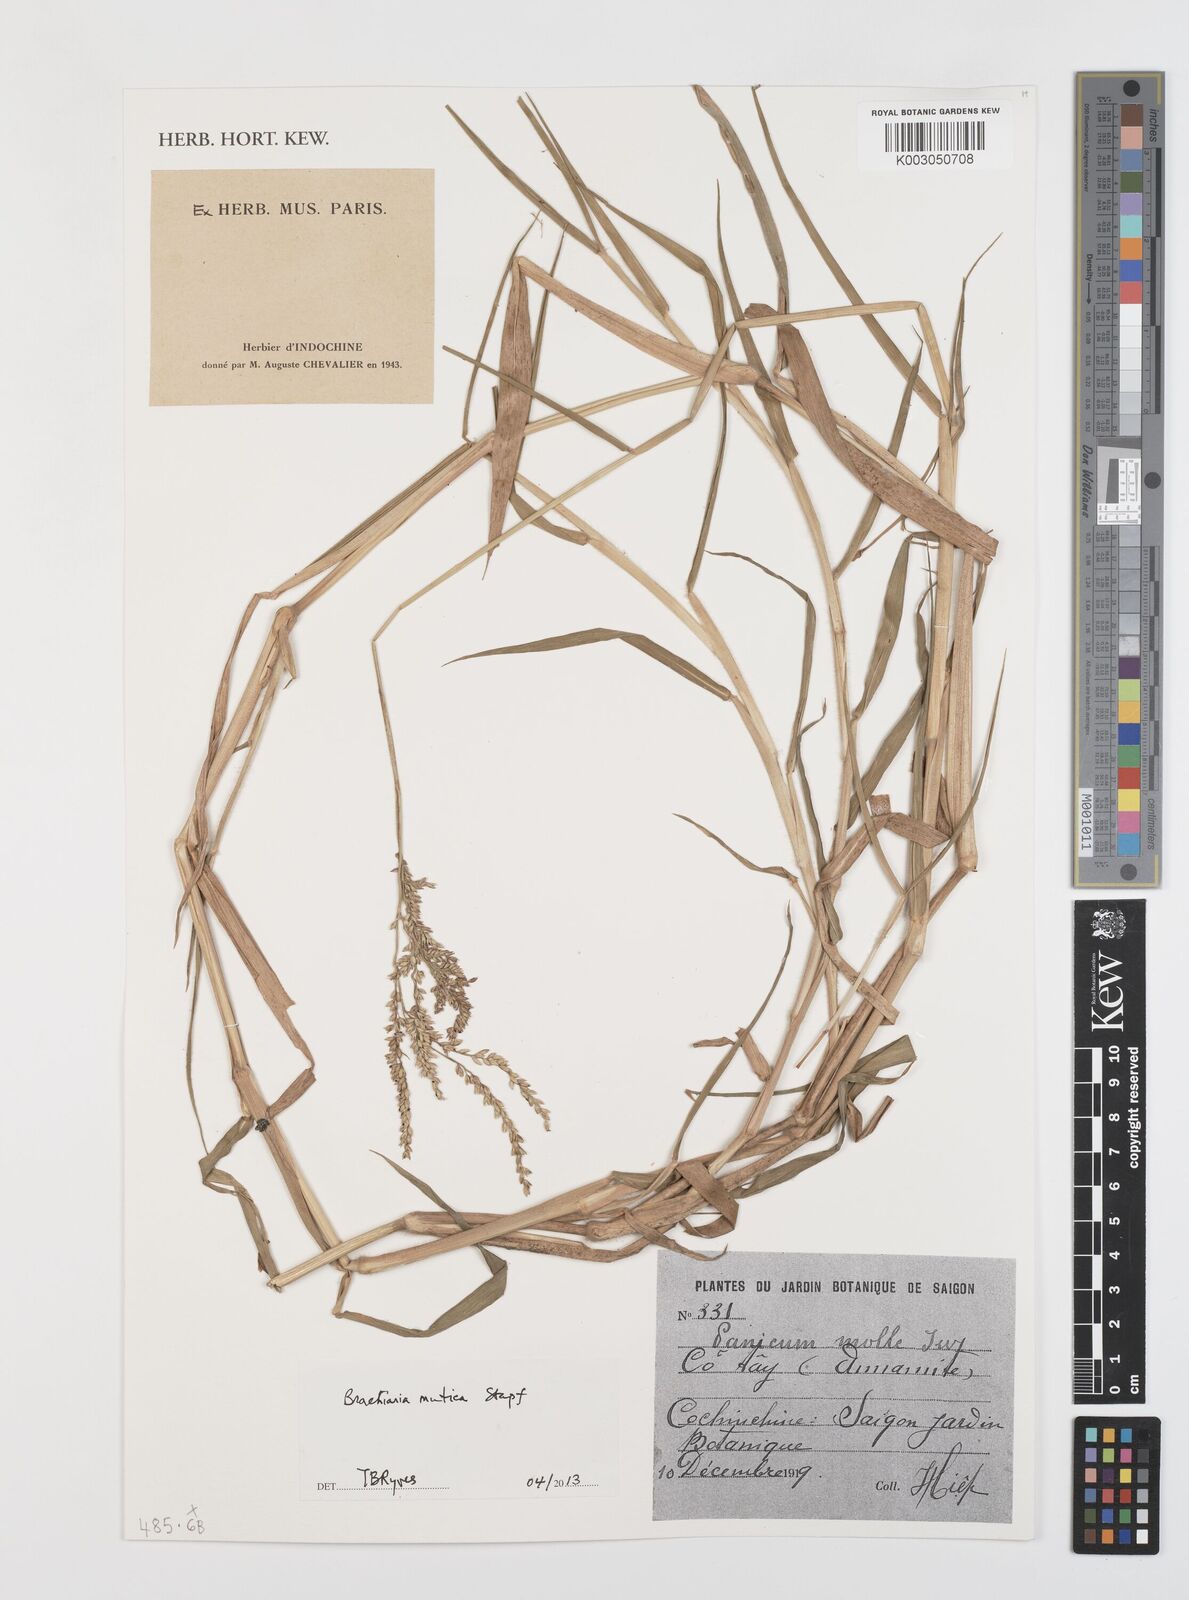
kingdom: Plantae
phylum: Tracheophyta
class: Liliopsida
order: Poales
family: Poaceae
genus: Urochloa
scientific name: Urochloa mutica
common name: Para grass
